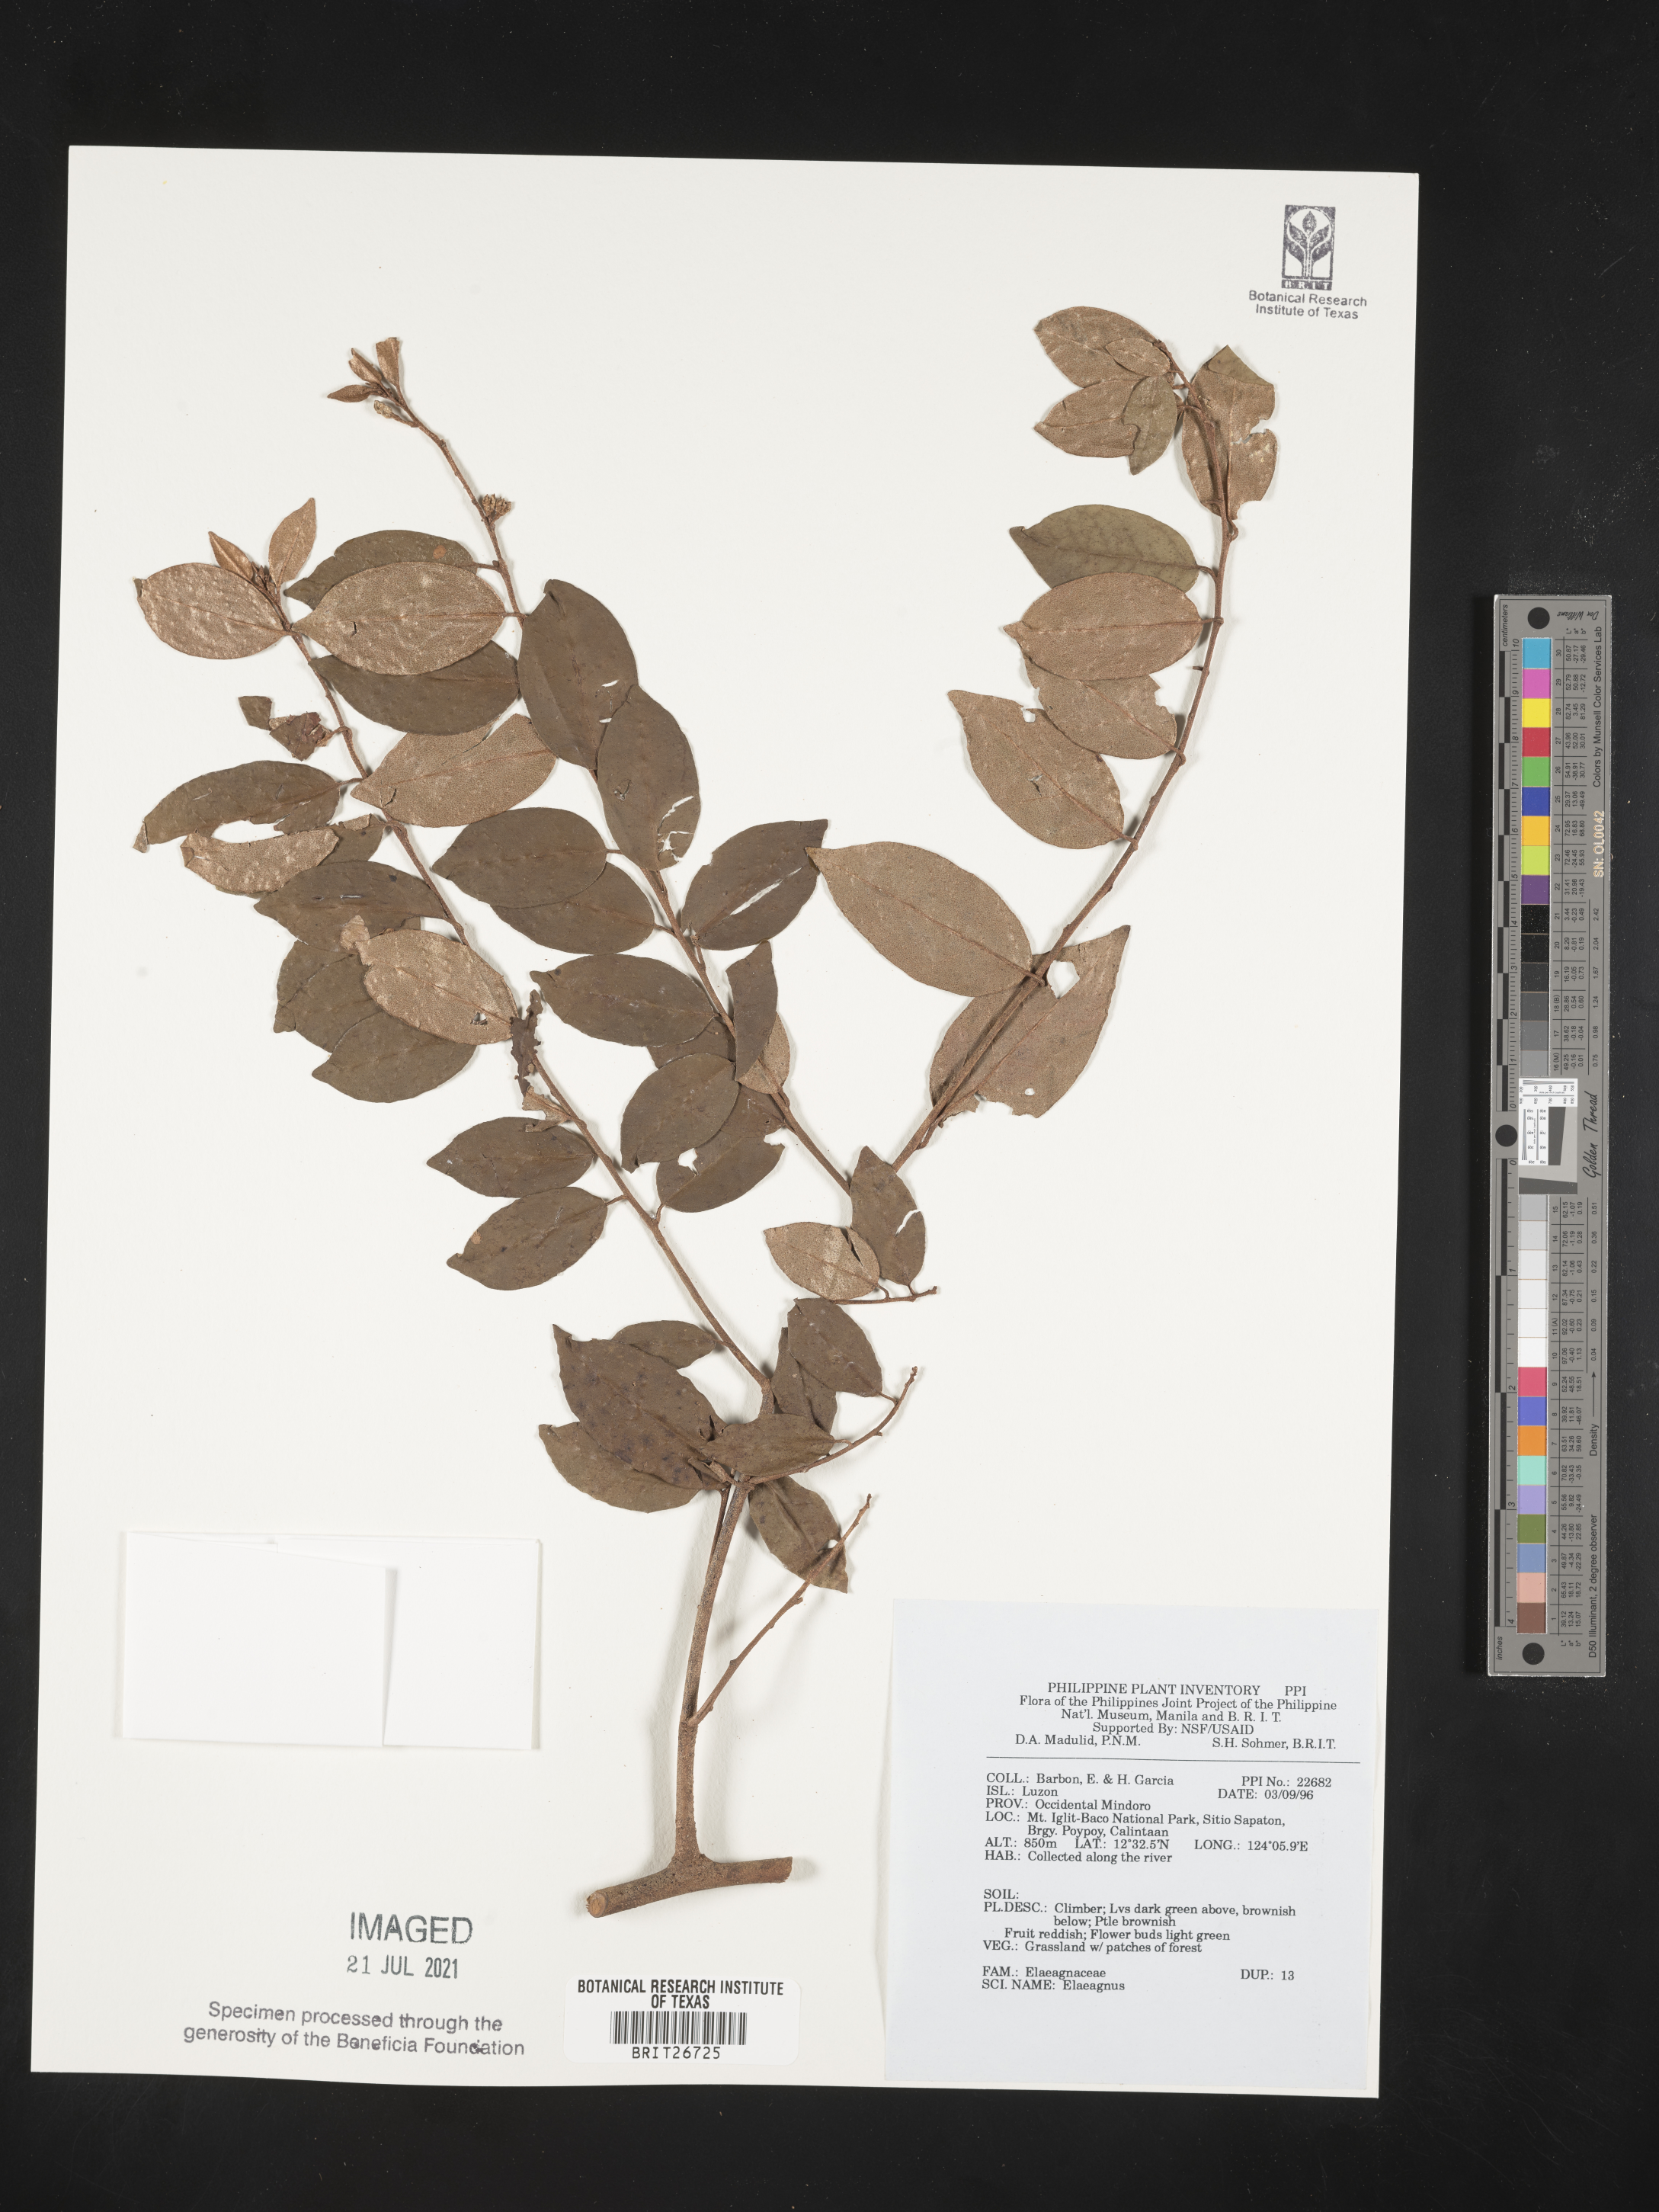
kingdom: Plantae
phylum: Tracheophyta
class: Magnoliopsida
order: Rosales
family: Elaeagnaceae
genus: Elaeagnus
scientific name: Elaeagnus
